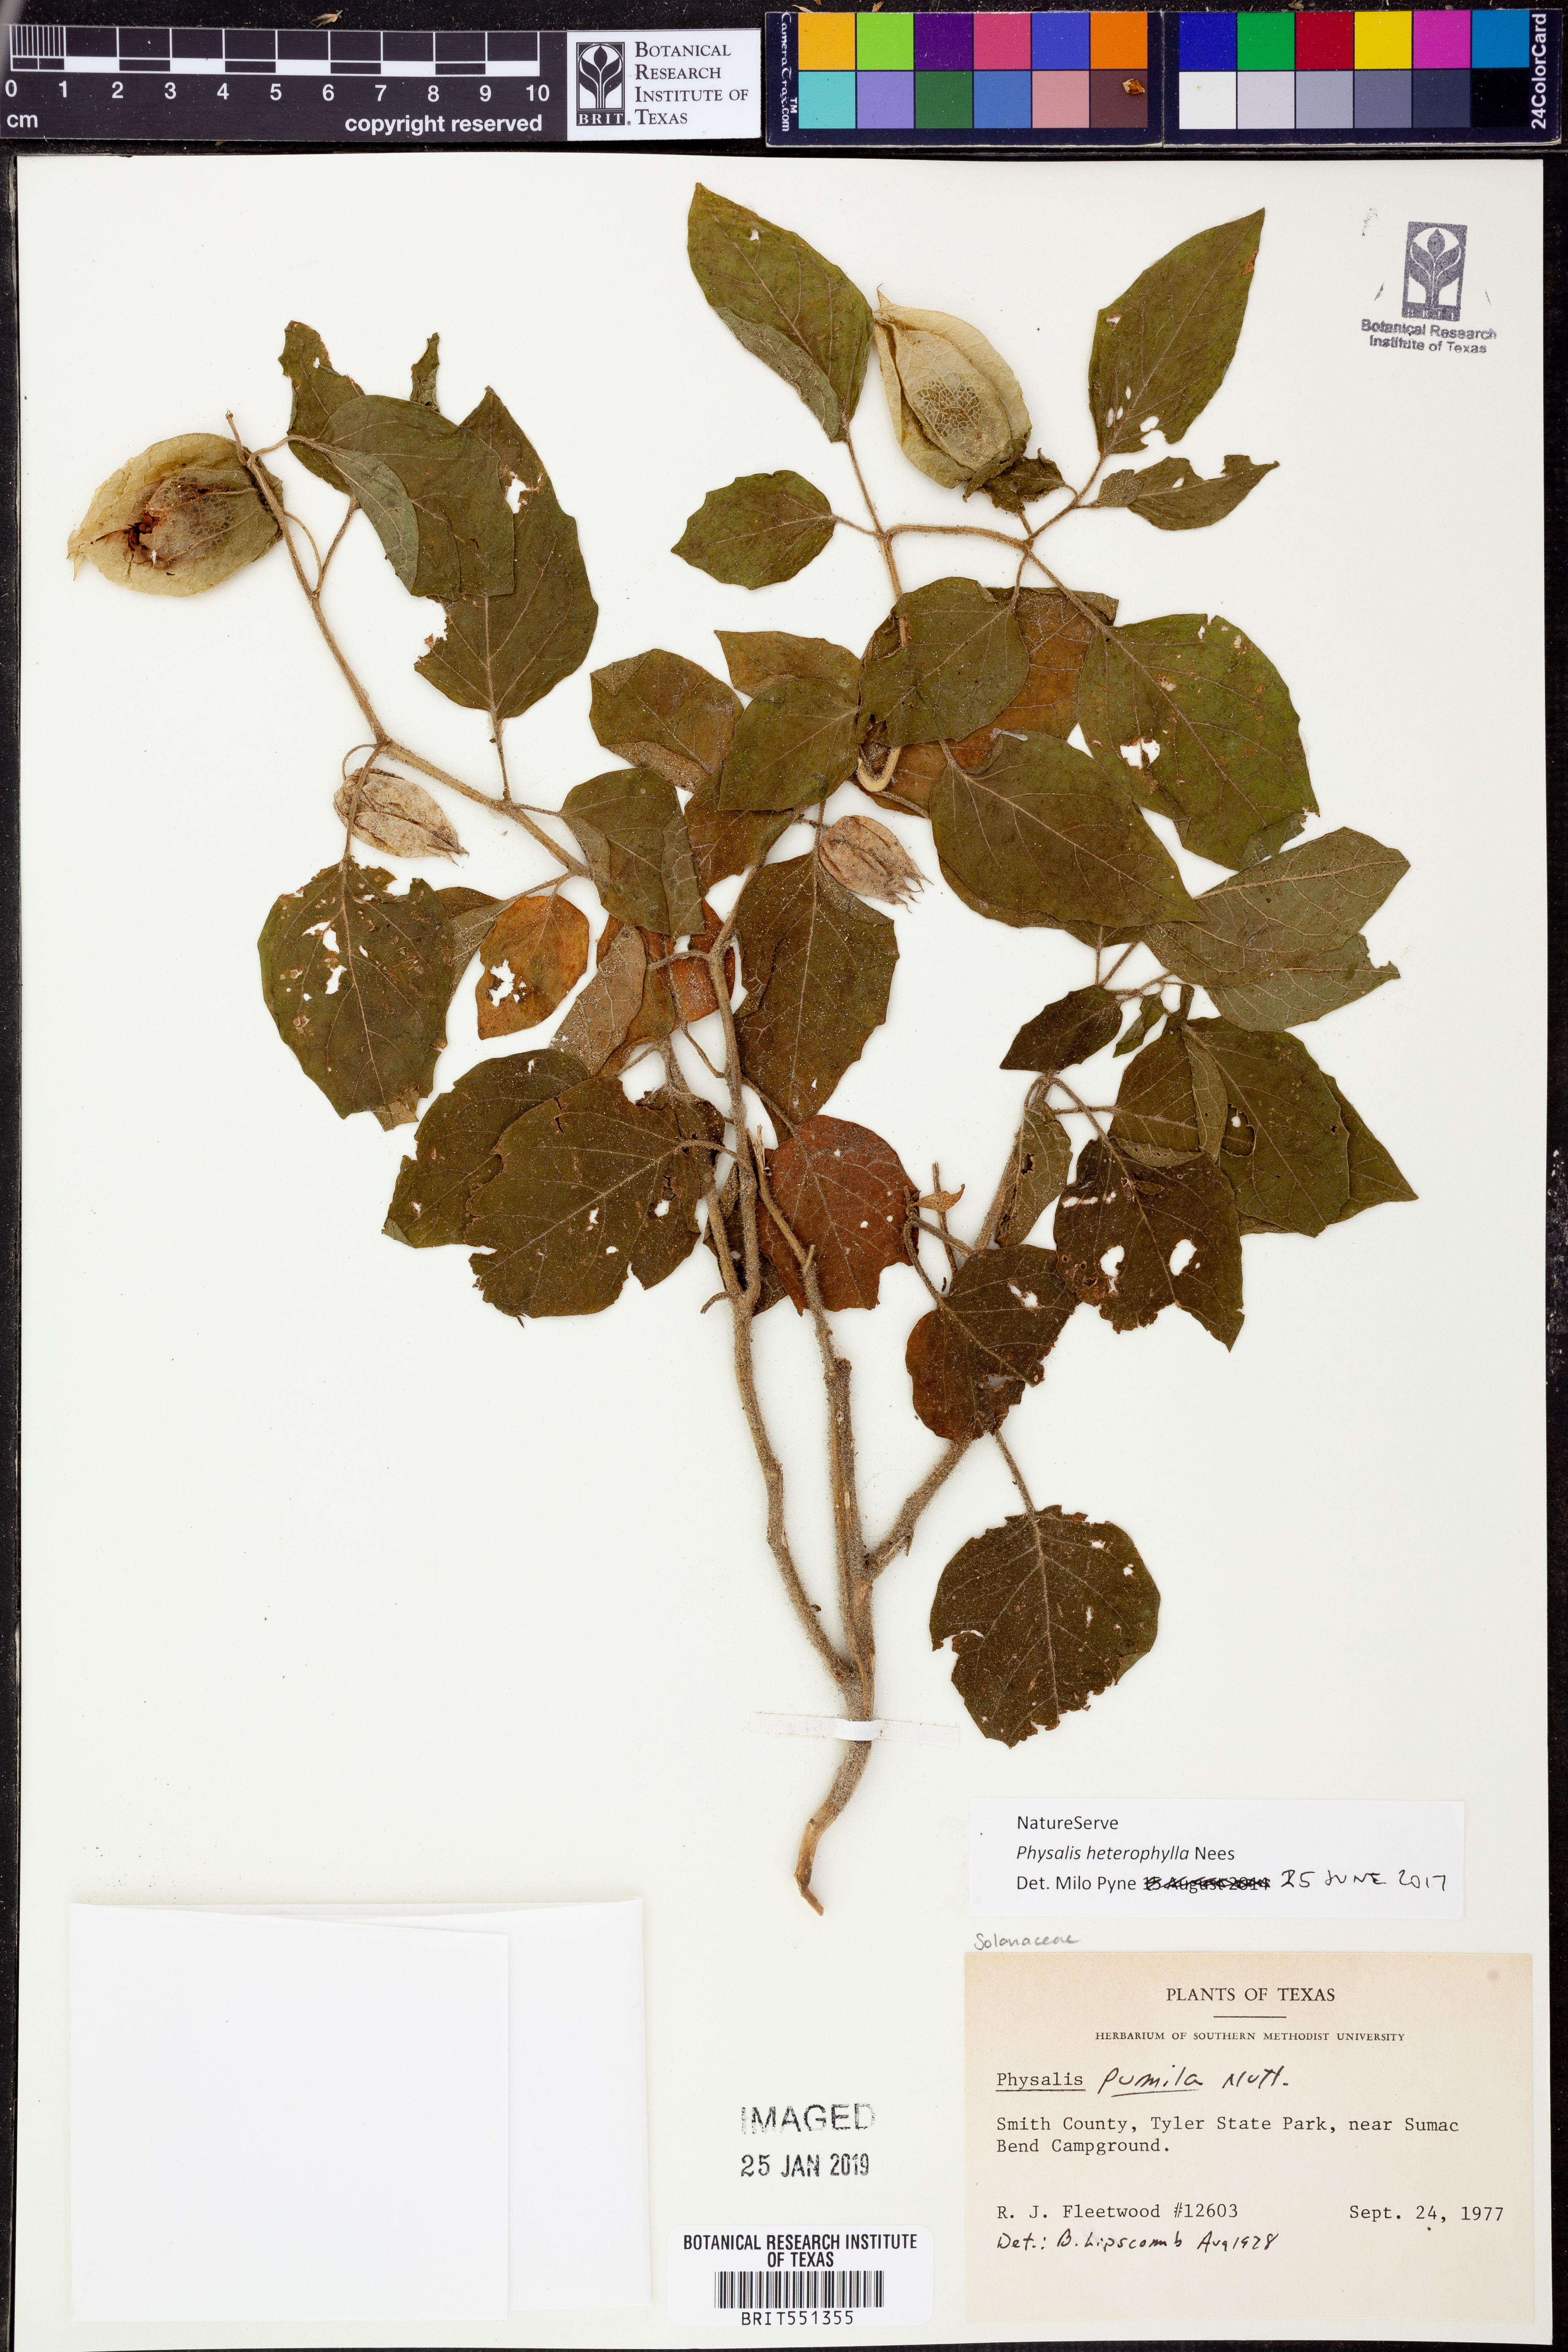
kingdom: Plantae
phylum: Tracheophyta
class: Magnoliopsida
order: Solanales
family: Solanaceae
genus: Physalis
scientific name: Physalis heterophylla
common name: Clammy ground-cherry
